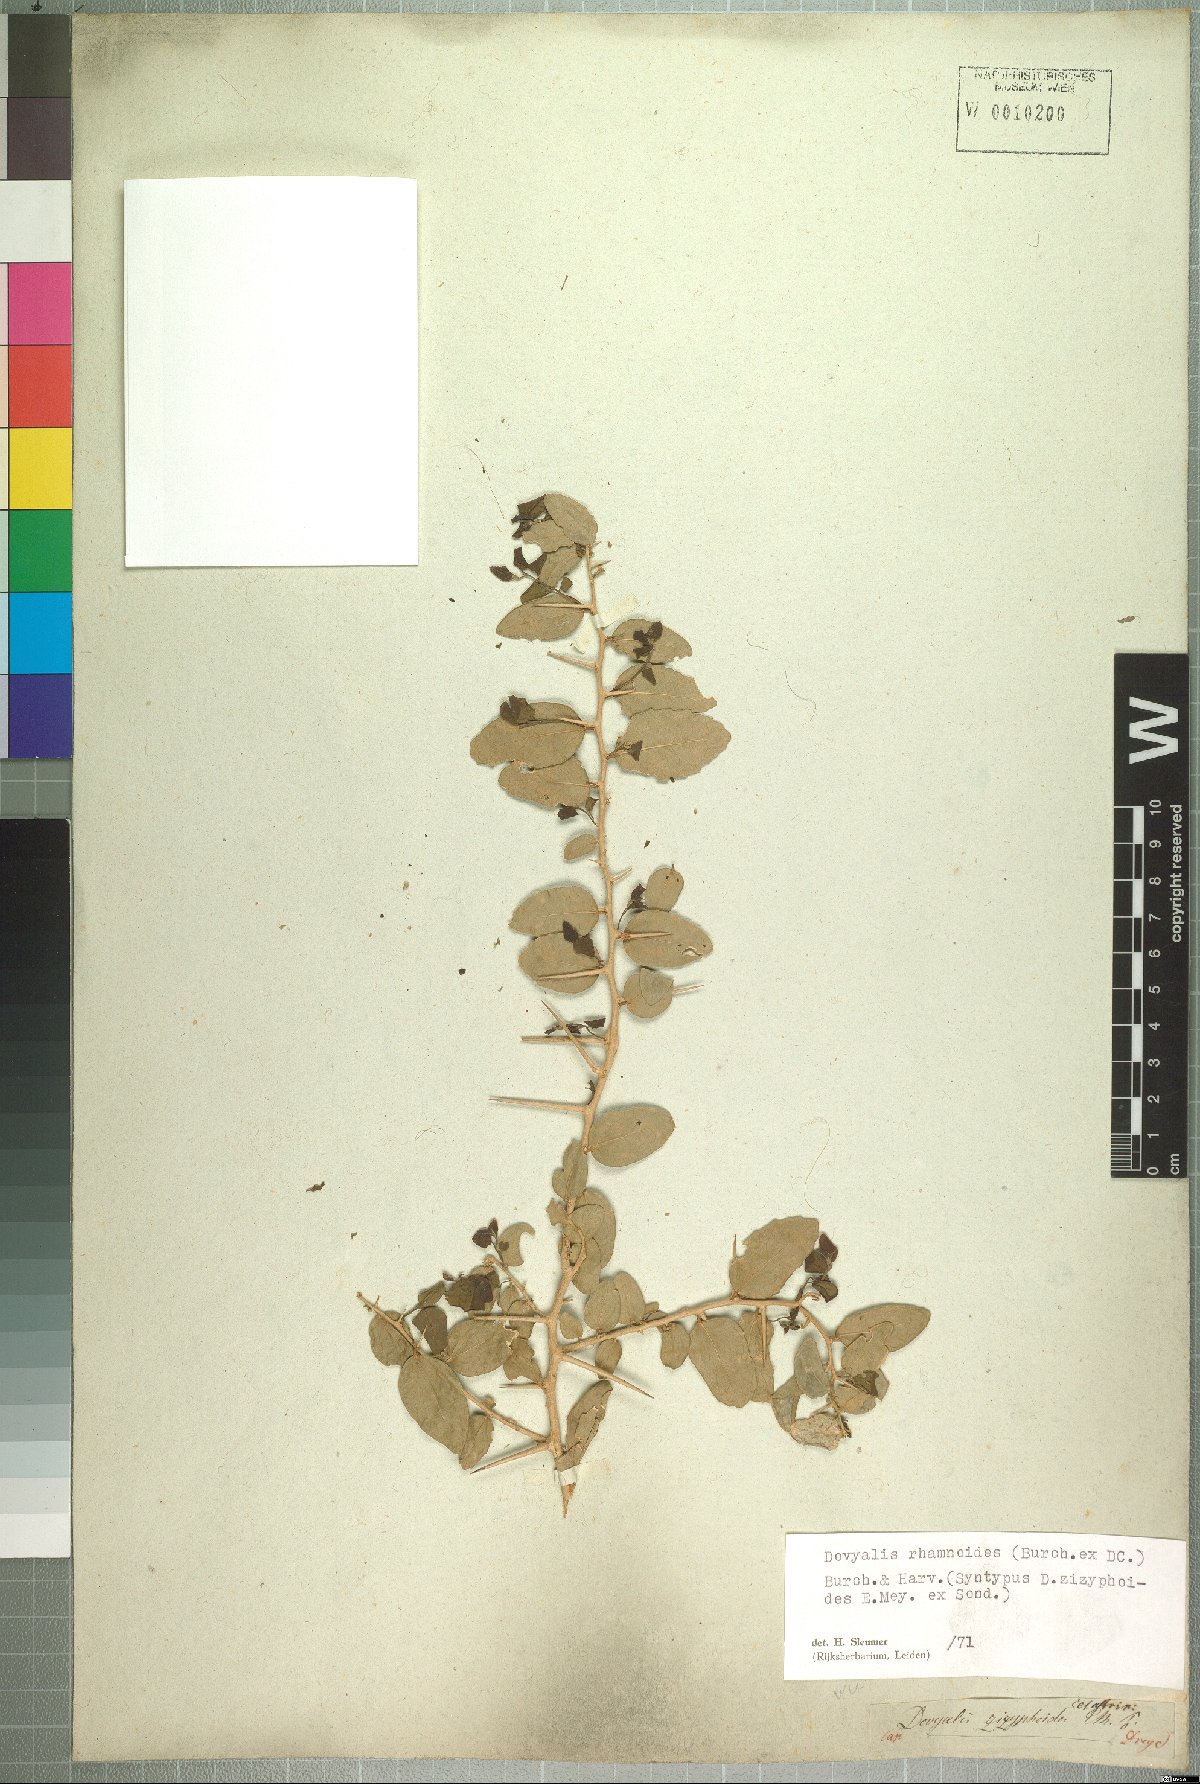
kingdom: Plantae
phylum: Tracheophyta
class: Magnoliopsida
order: Malpighiales
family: Salicaceae
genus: Dovyalis
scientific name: Dovyalis rhamnoides
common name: Sourberry
